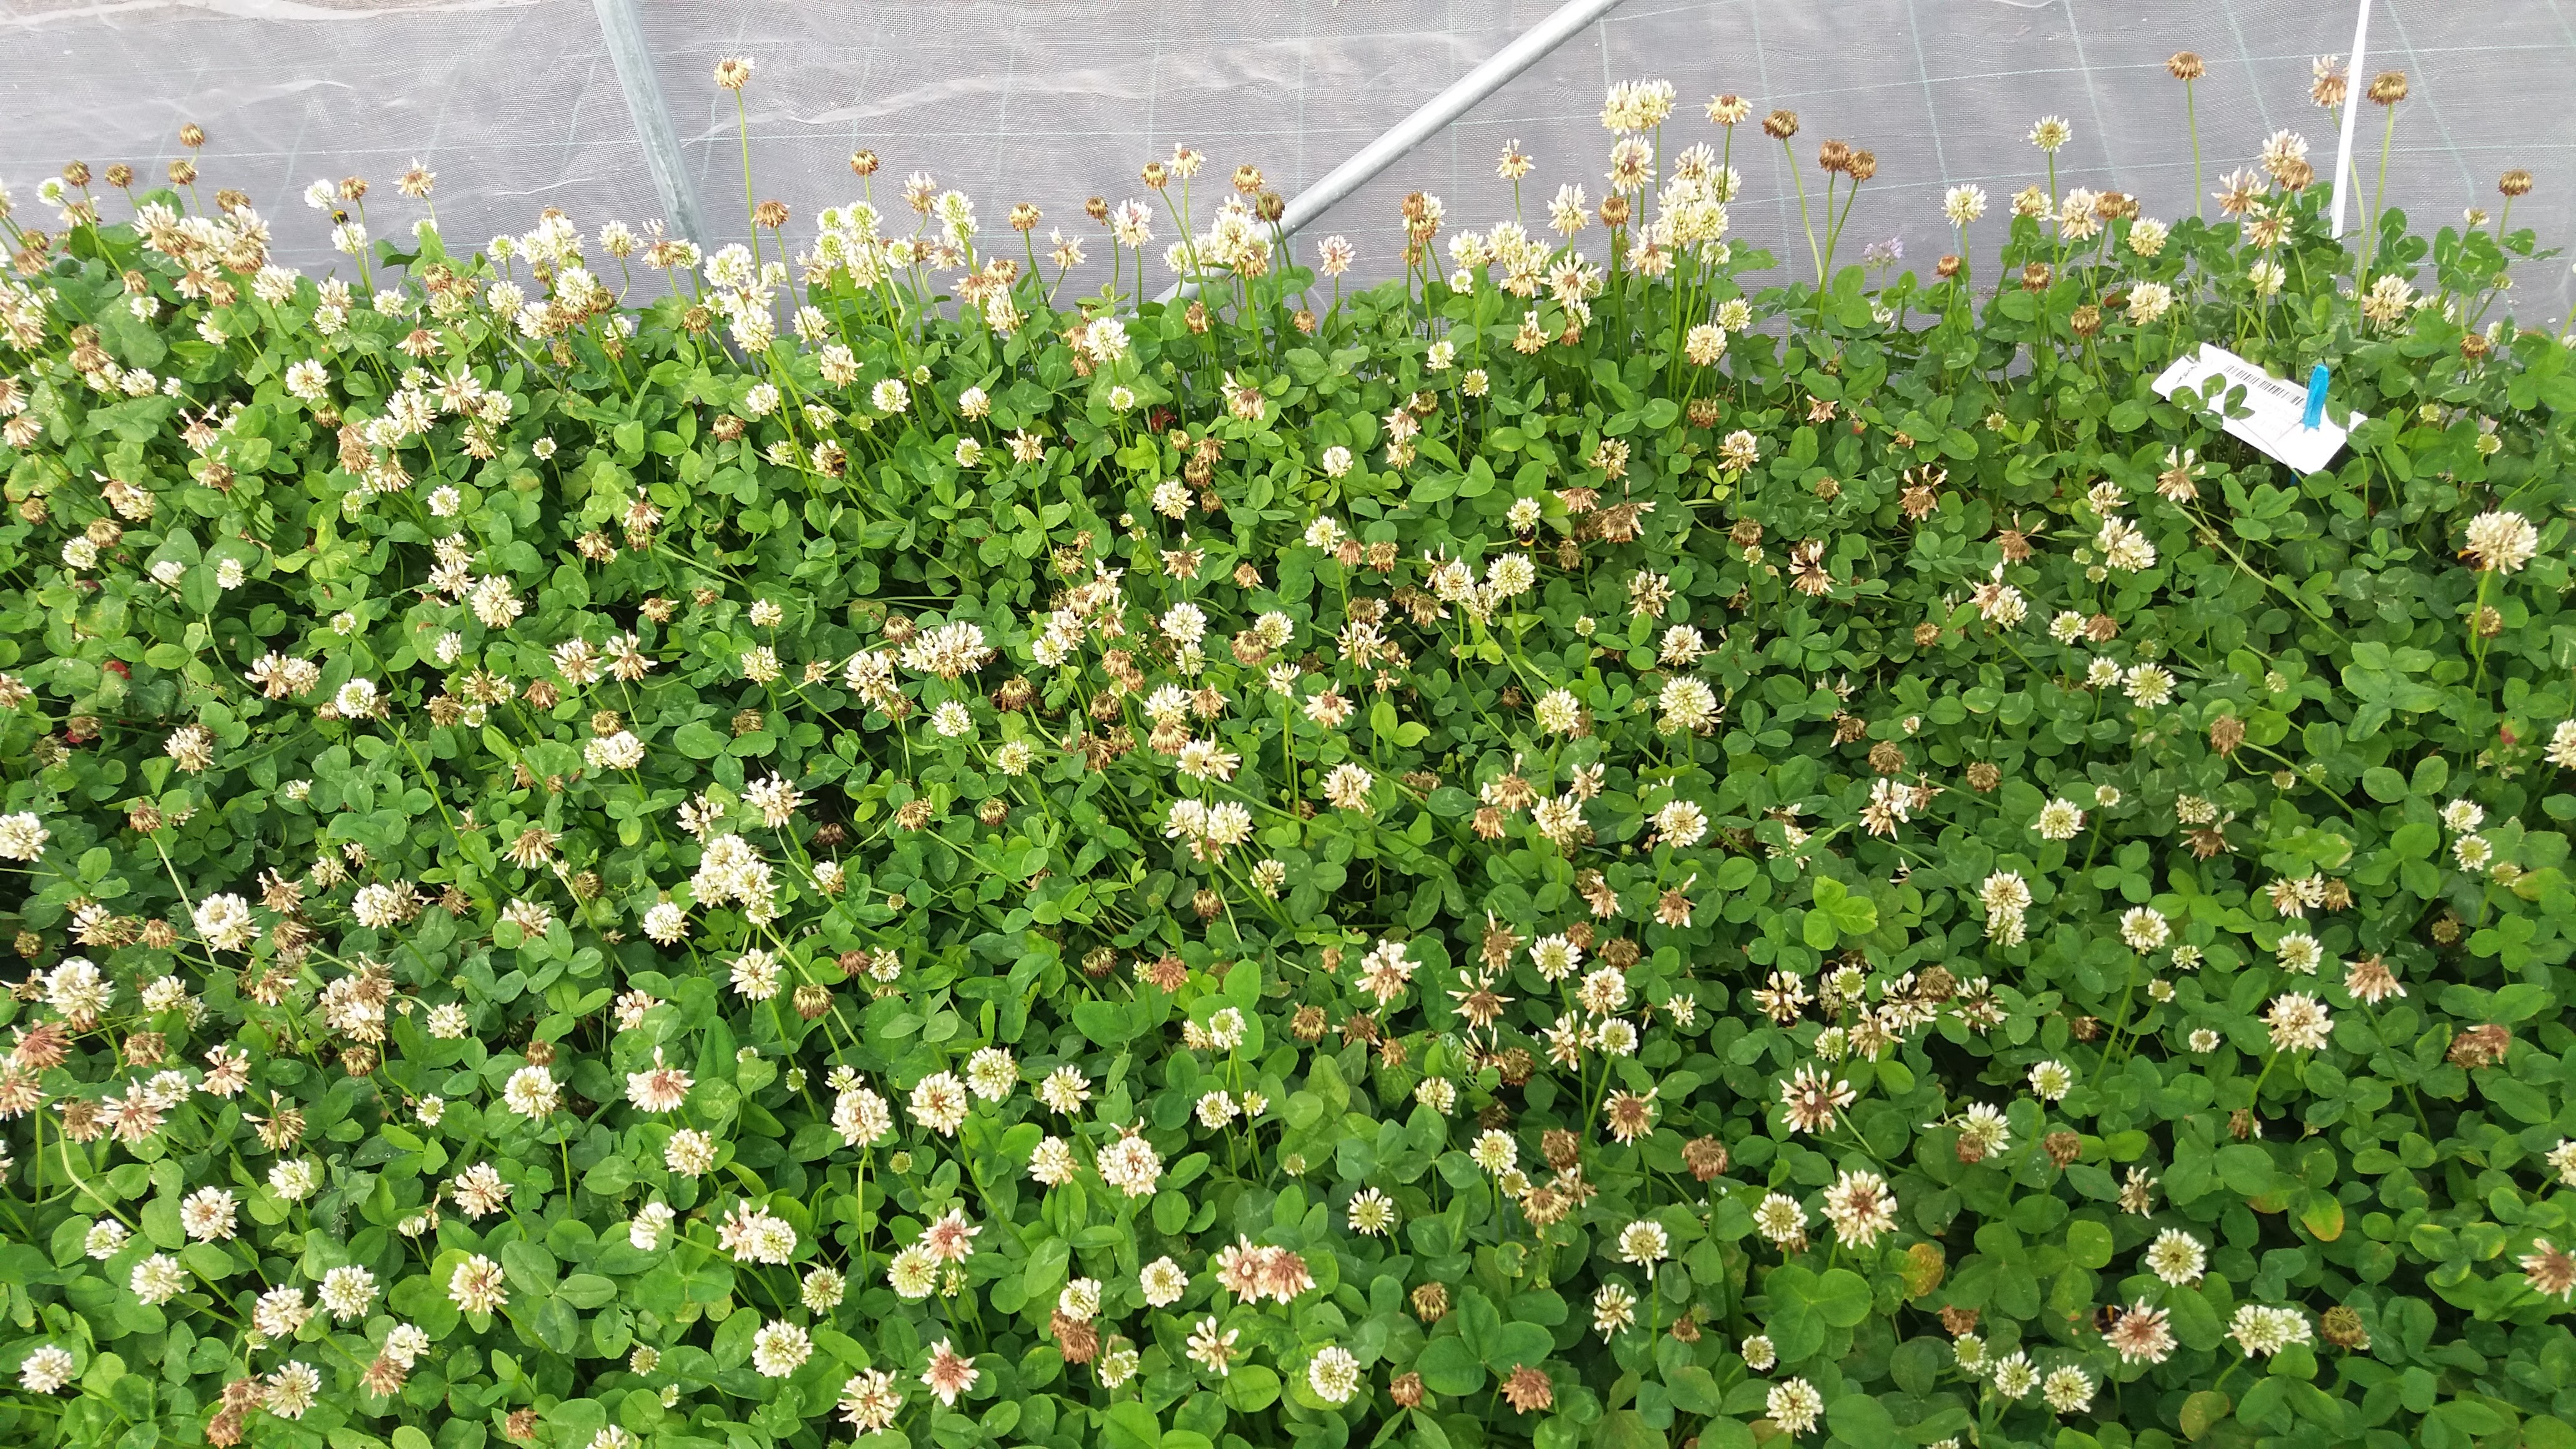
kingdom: Plantae
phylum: Tracheophyta
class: Magnoliopsida
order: Fabales
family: Fabaceae
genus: Trifolium
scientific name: Trifolium repens
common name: White clover
